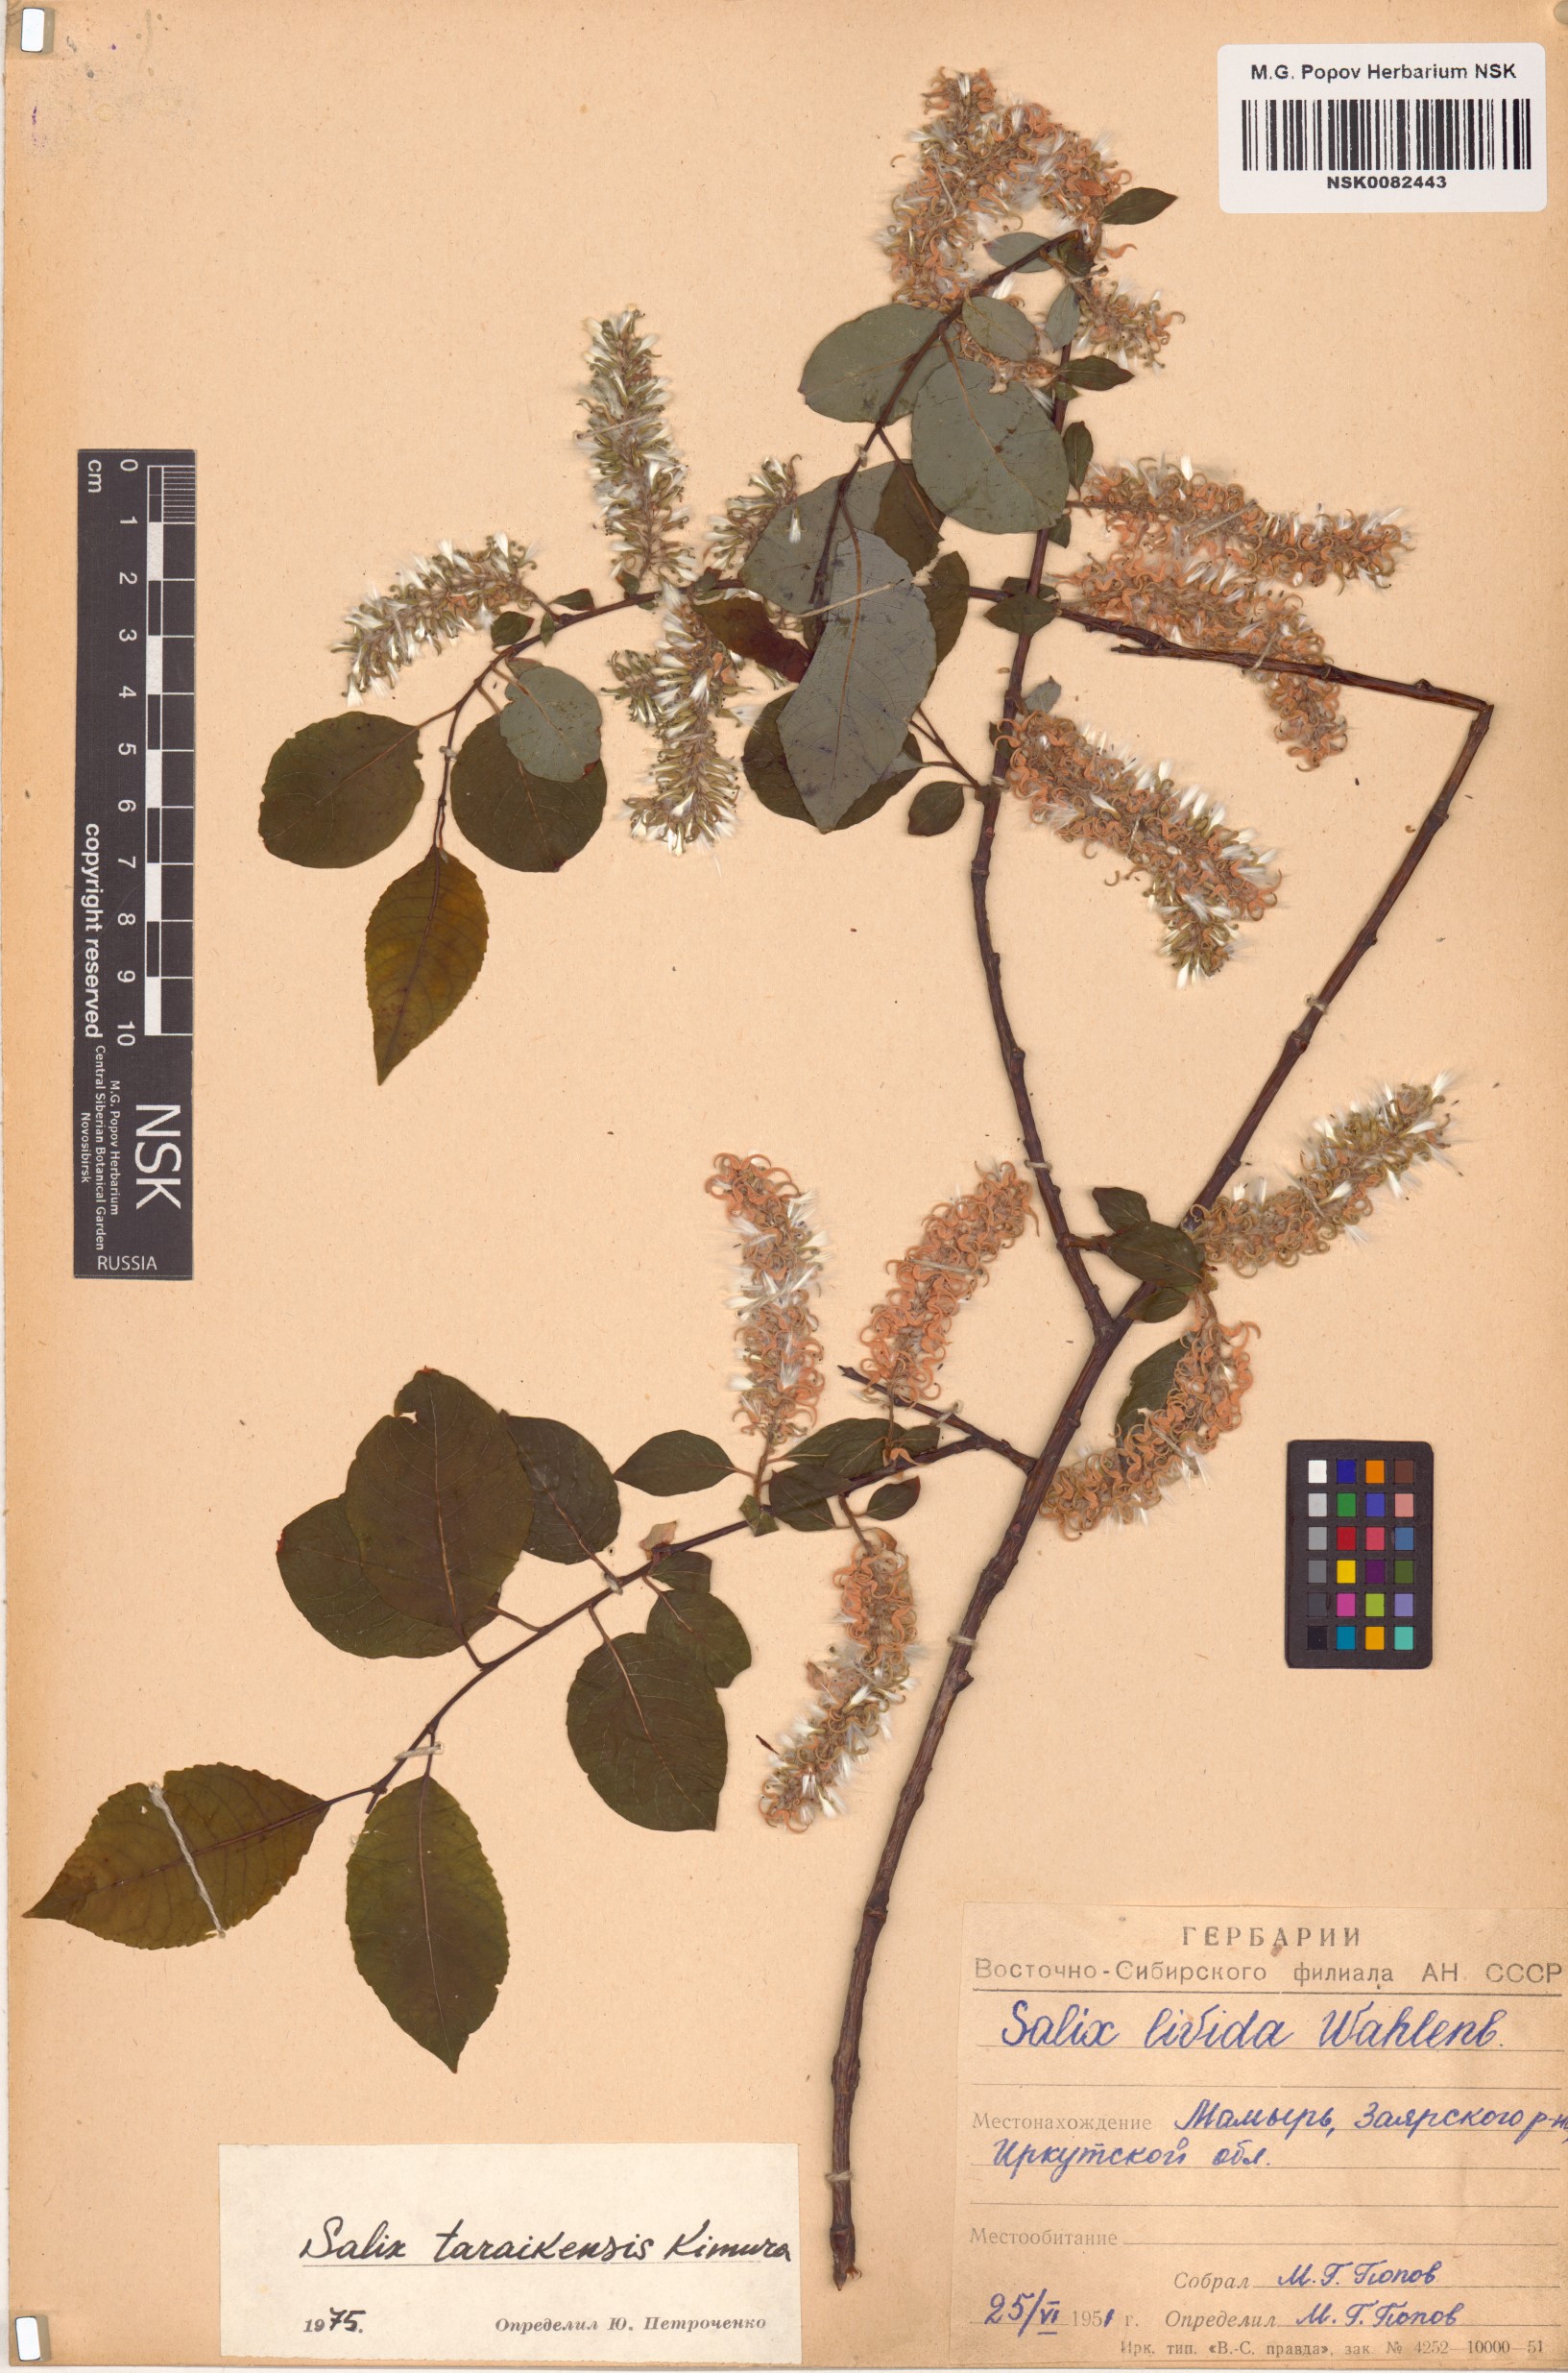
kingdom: Plantae
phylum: Tracheophyta
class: Magnoliopsida
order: Malpighiales
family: Salicaceae
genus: Salix
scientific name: Salix taraikensis
